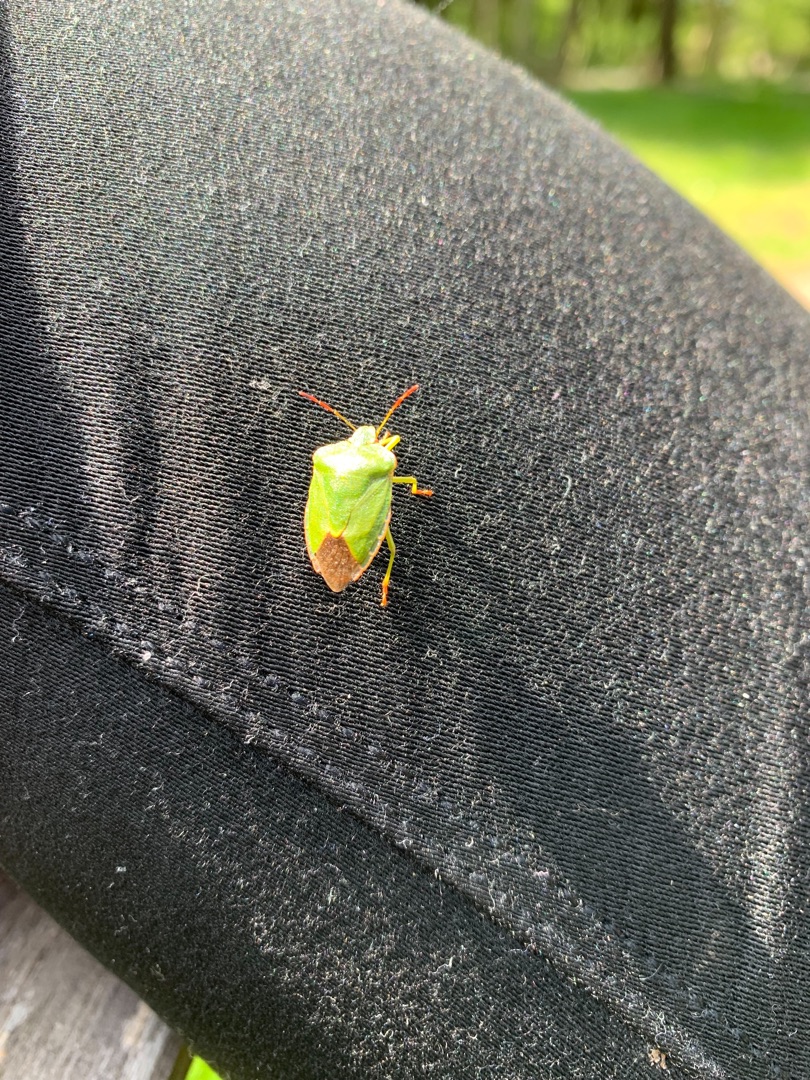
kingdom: Animalia
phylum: Arthropoda
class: Insecta
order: Hemiptera
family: Pentatomidae
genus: Palomena
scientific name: Palomena prasina
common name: Grøn bredtæge
